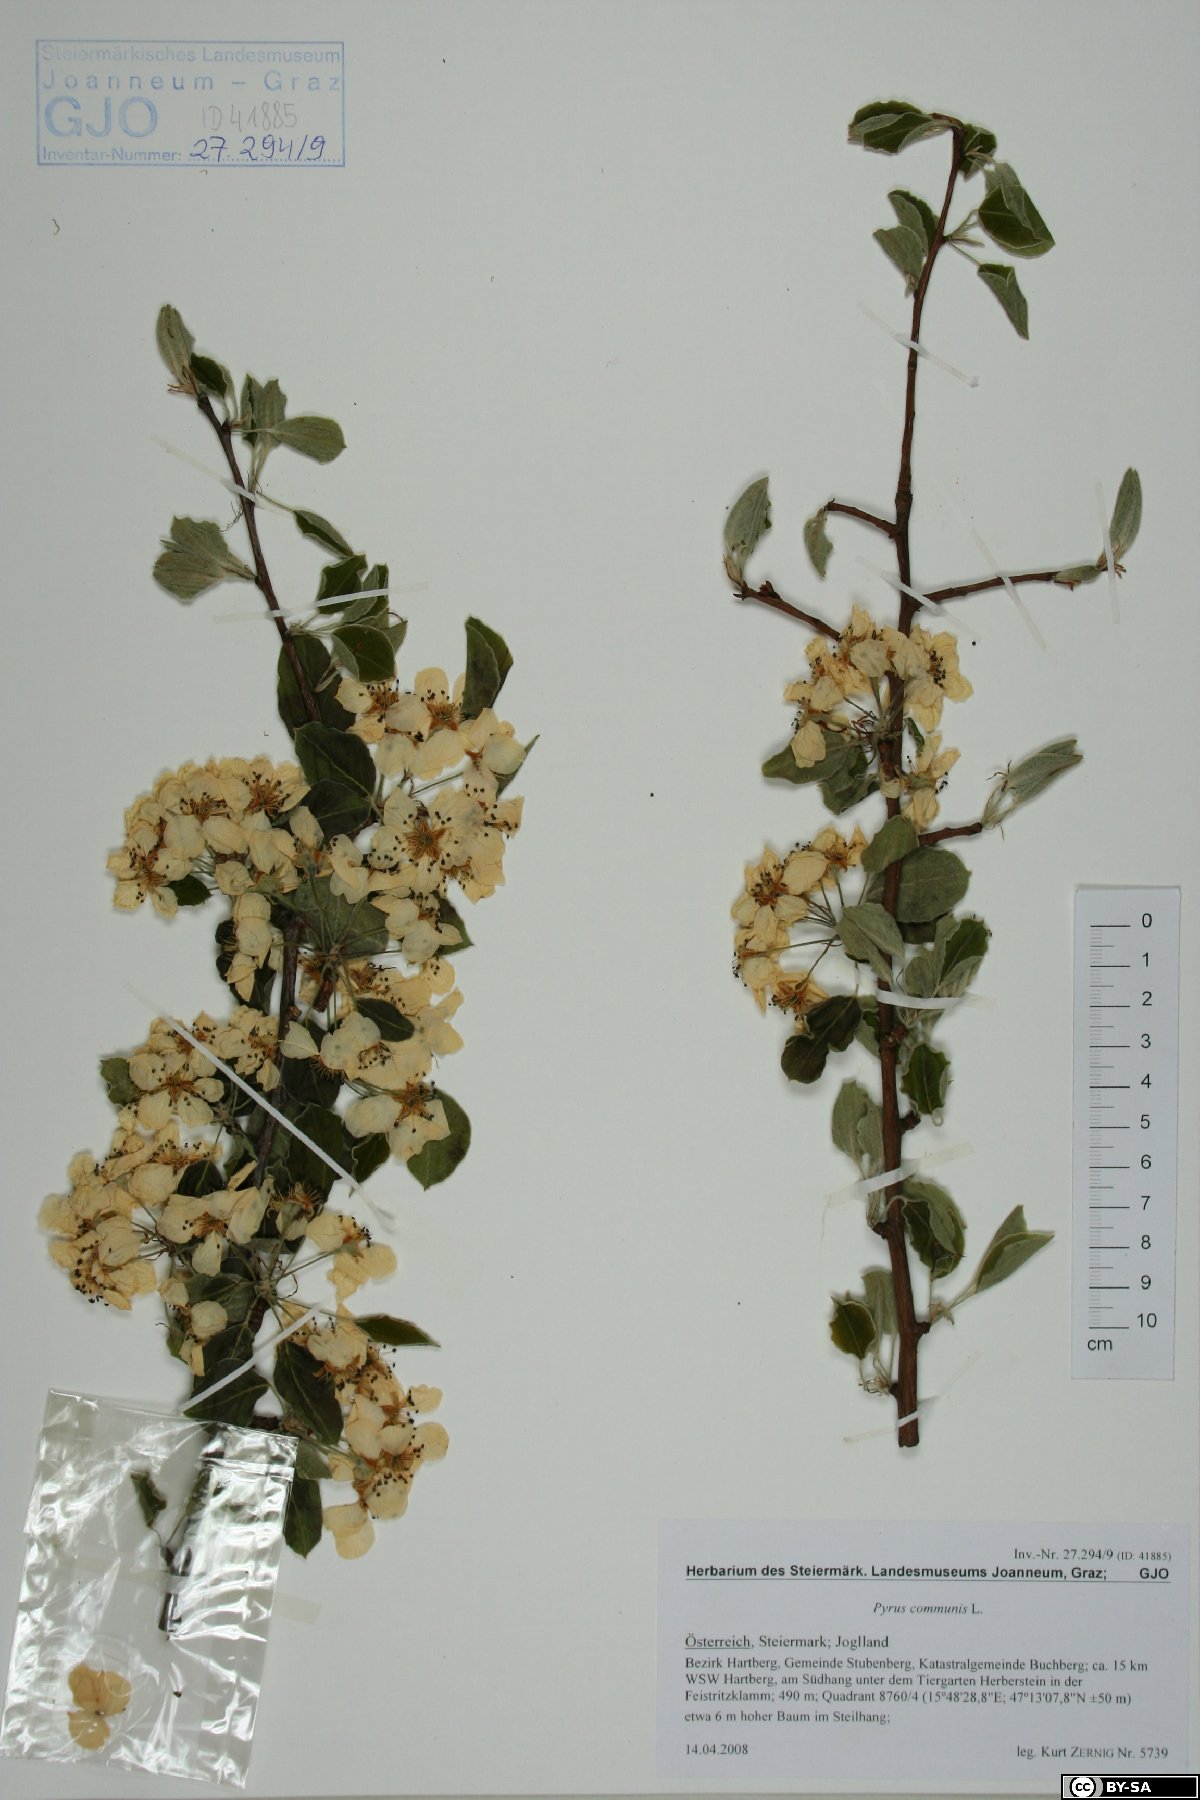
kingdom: Plantae
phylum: Tracheophyta
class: Magnoliopsida
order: Rosales
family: Rosaceae
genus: Pyrus
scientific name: Pyrus communis
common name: Pear
